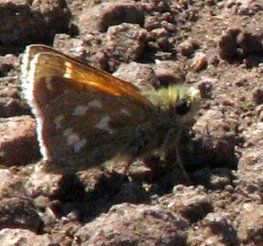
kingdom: Animalia
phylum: Arthropoda
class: Insecta
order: Lepidoptera
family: Hesperiidae
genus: Hesperia
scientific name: Hesperia comma
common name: Common Branded Skipper
